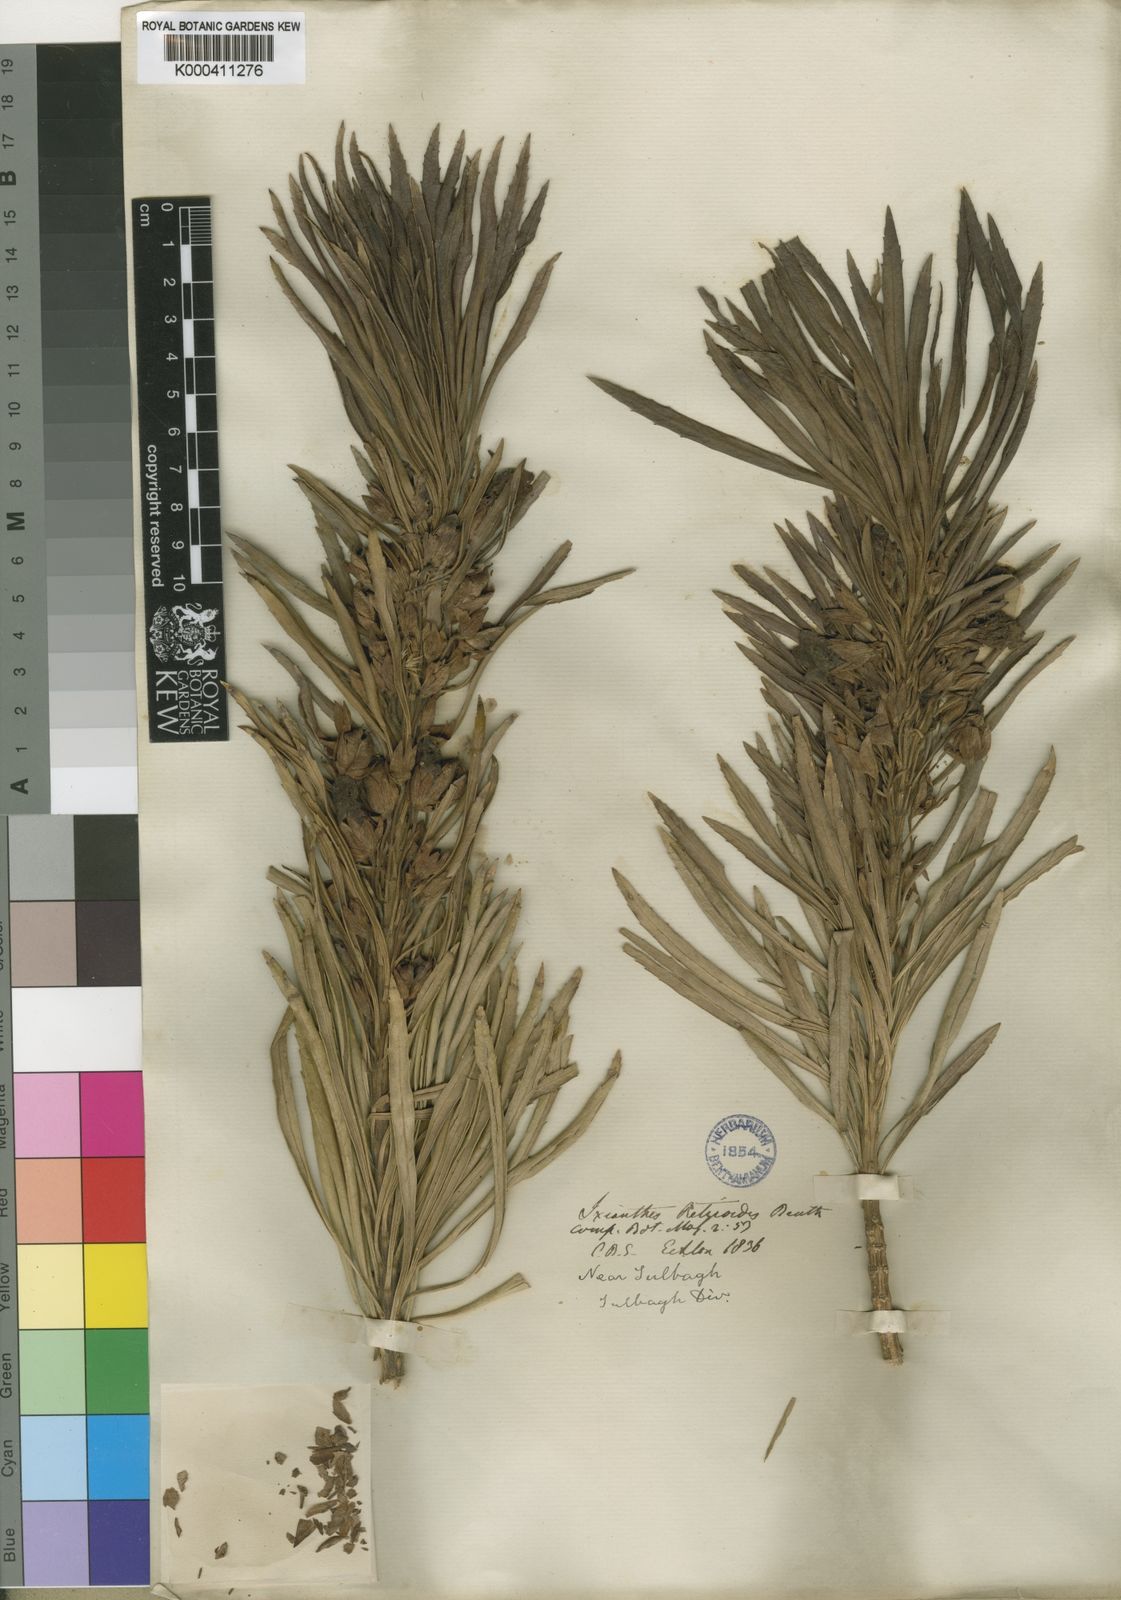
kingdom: Plantae
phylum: Tracheophyta
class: Magnoliopsida
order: Lamiales
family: Stilbaceae
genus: Ixianthes
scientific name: Ixianthes retzioides
